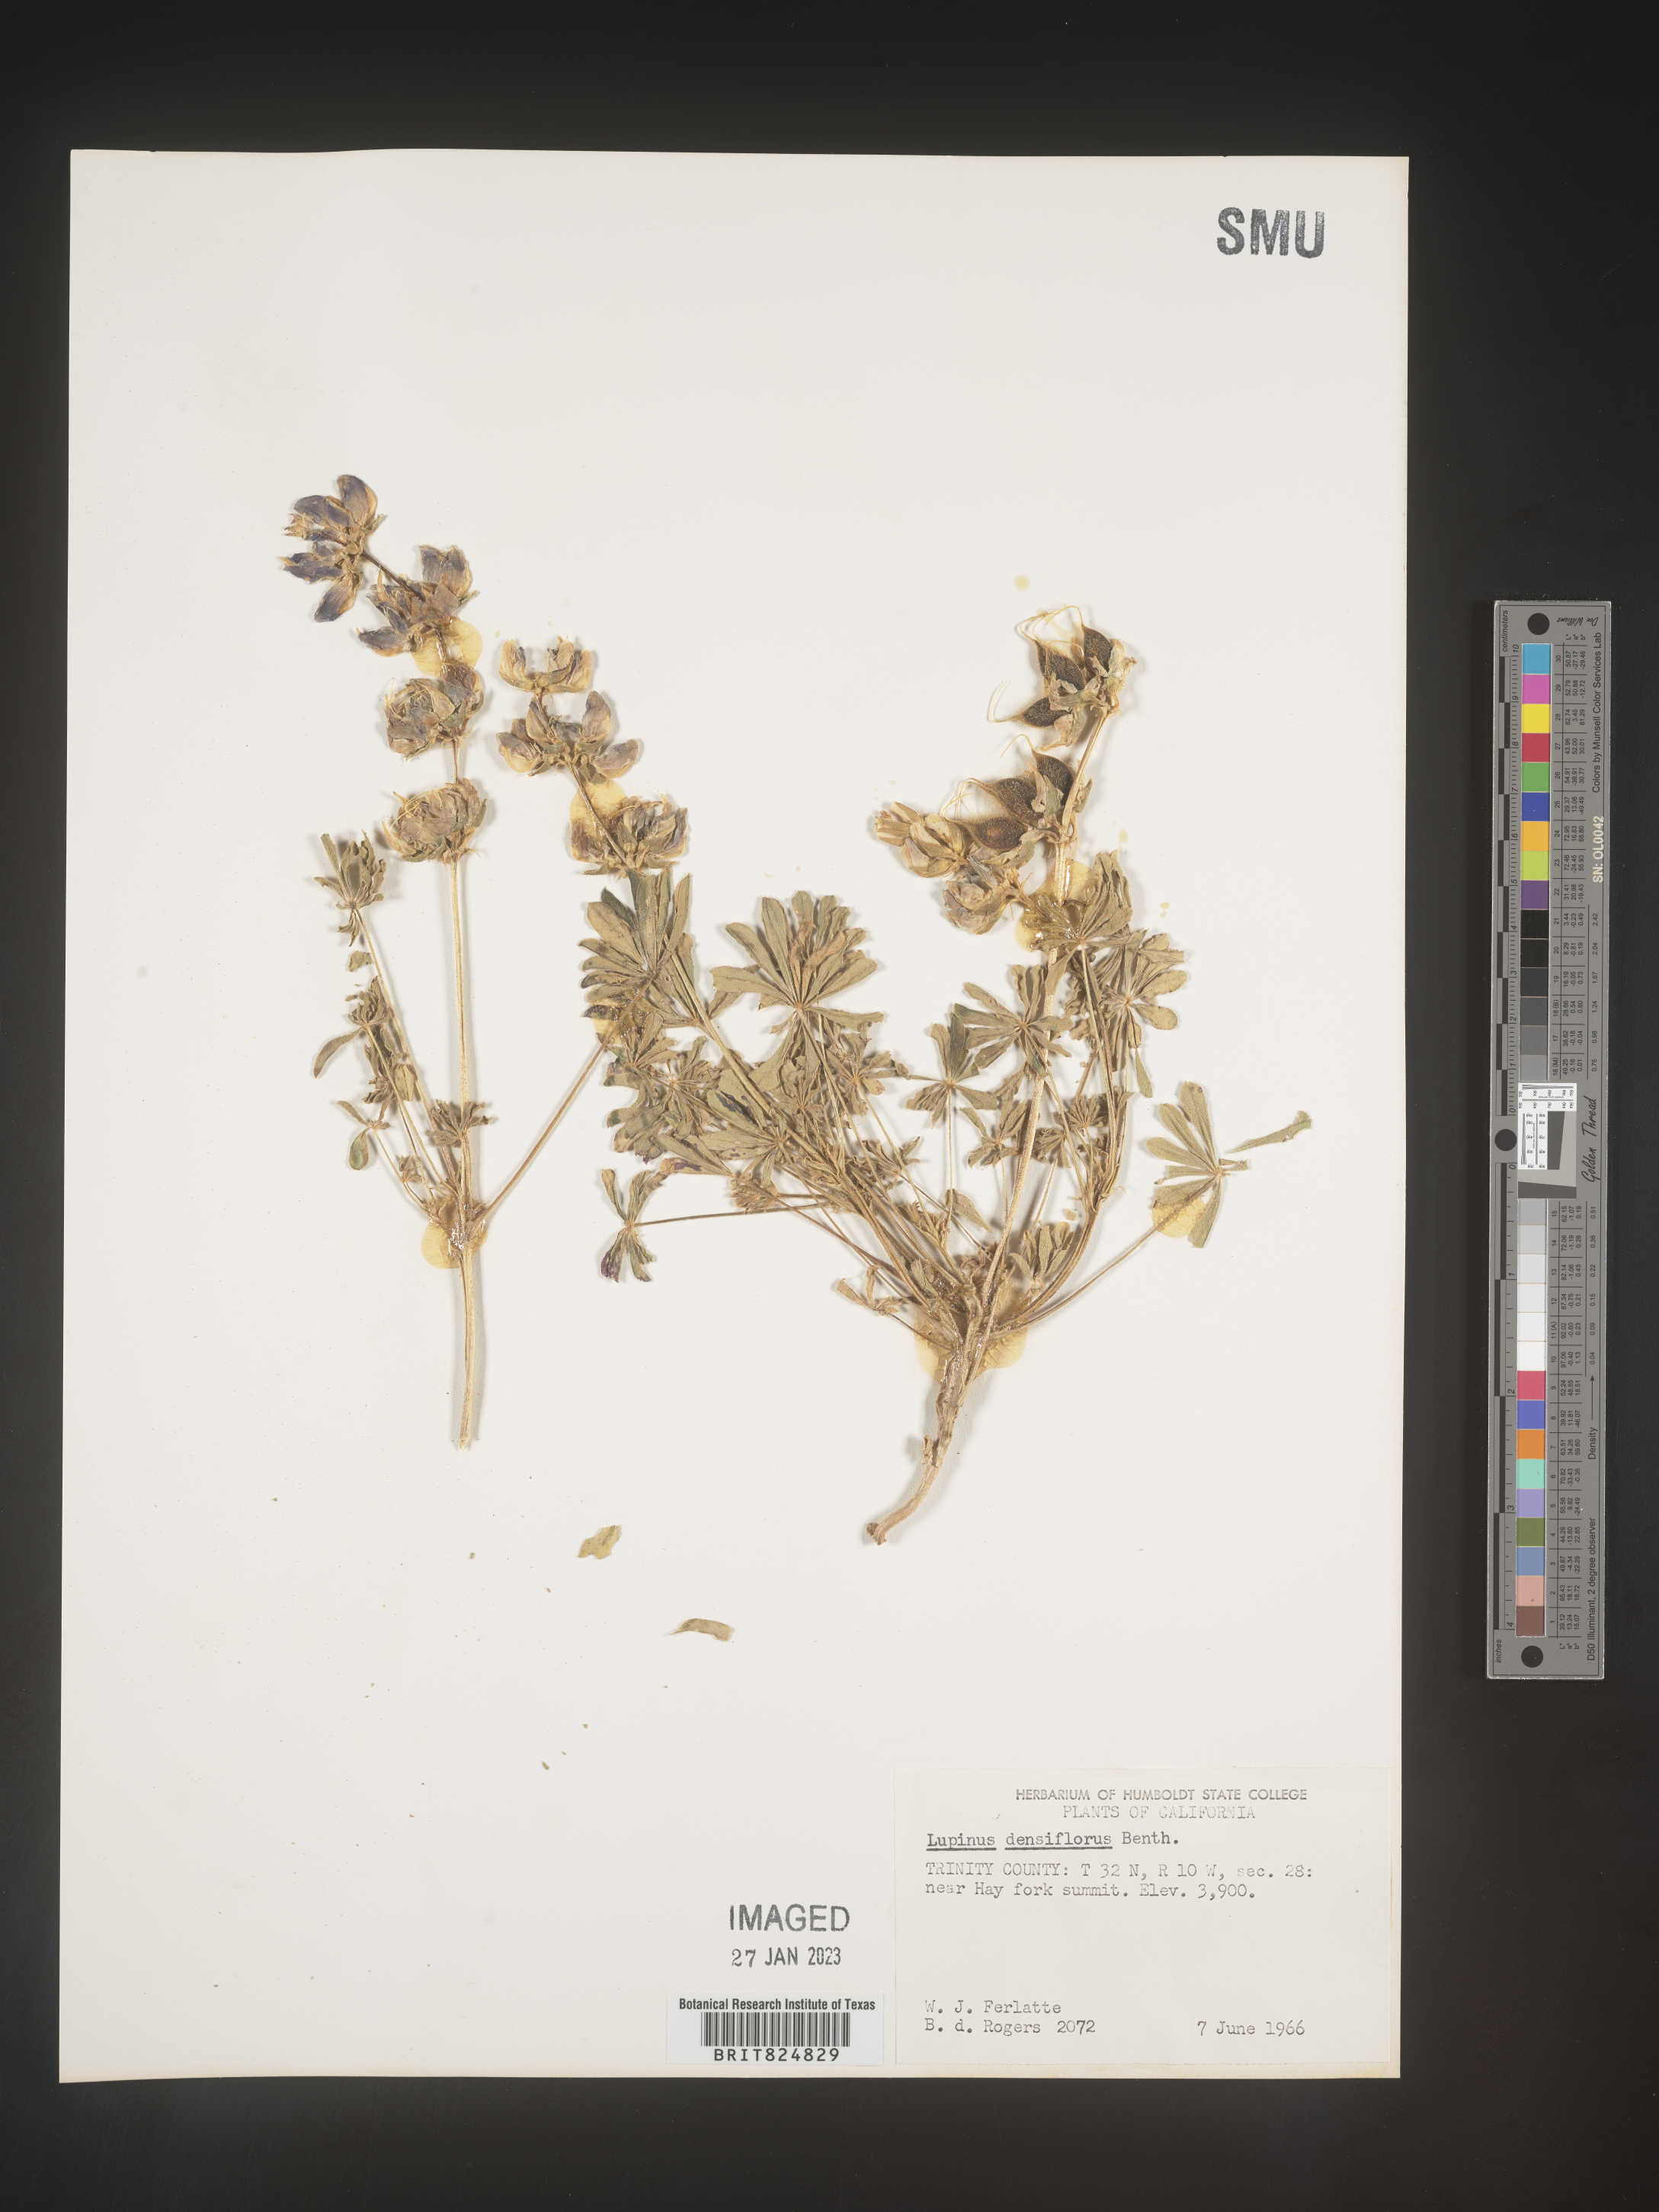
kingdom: Plantae
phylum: Tracheophyta
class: Magnoliopsida
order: Fabales
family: Fabaceae
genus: Lupinus
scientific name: Lupinus
